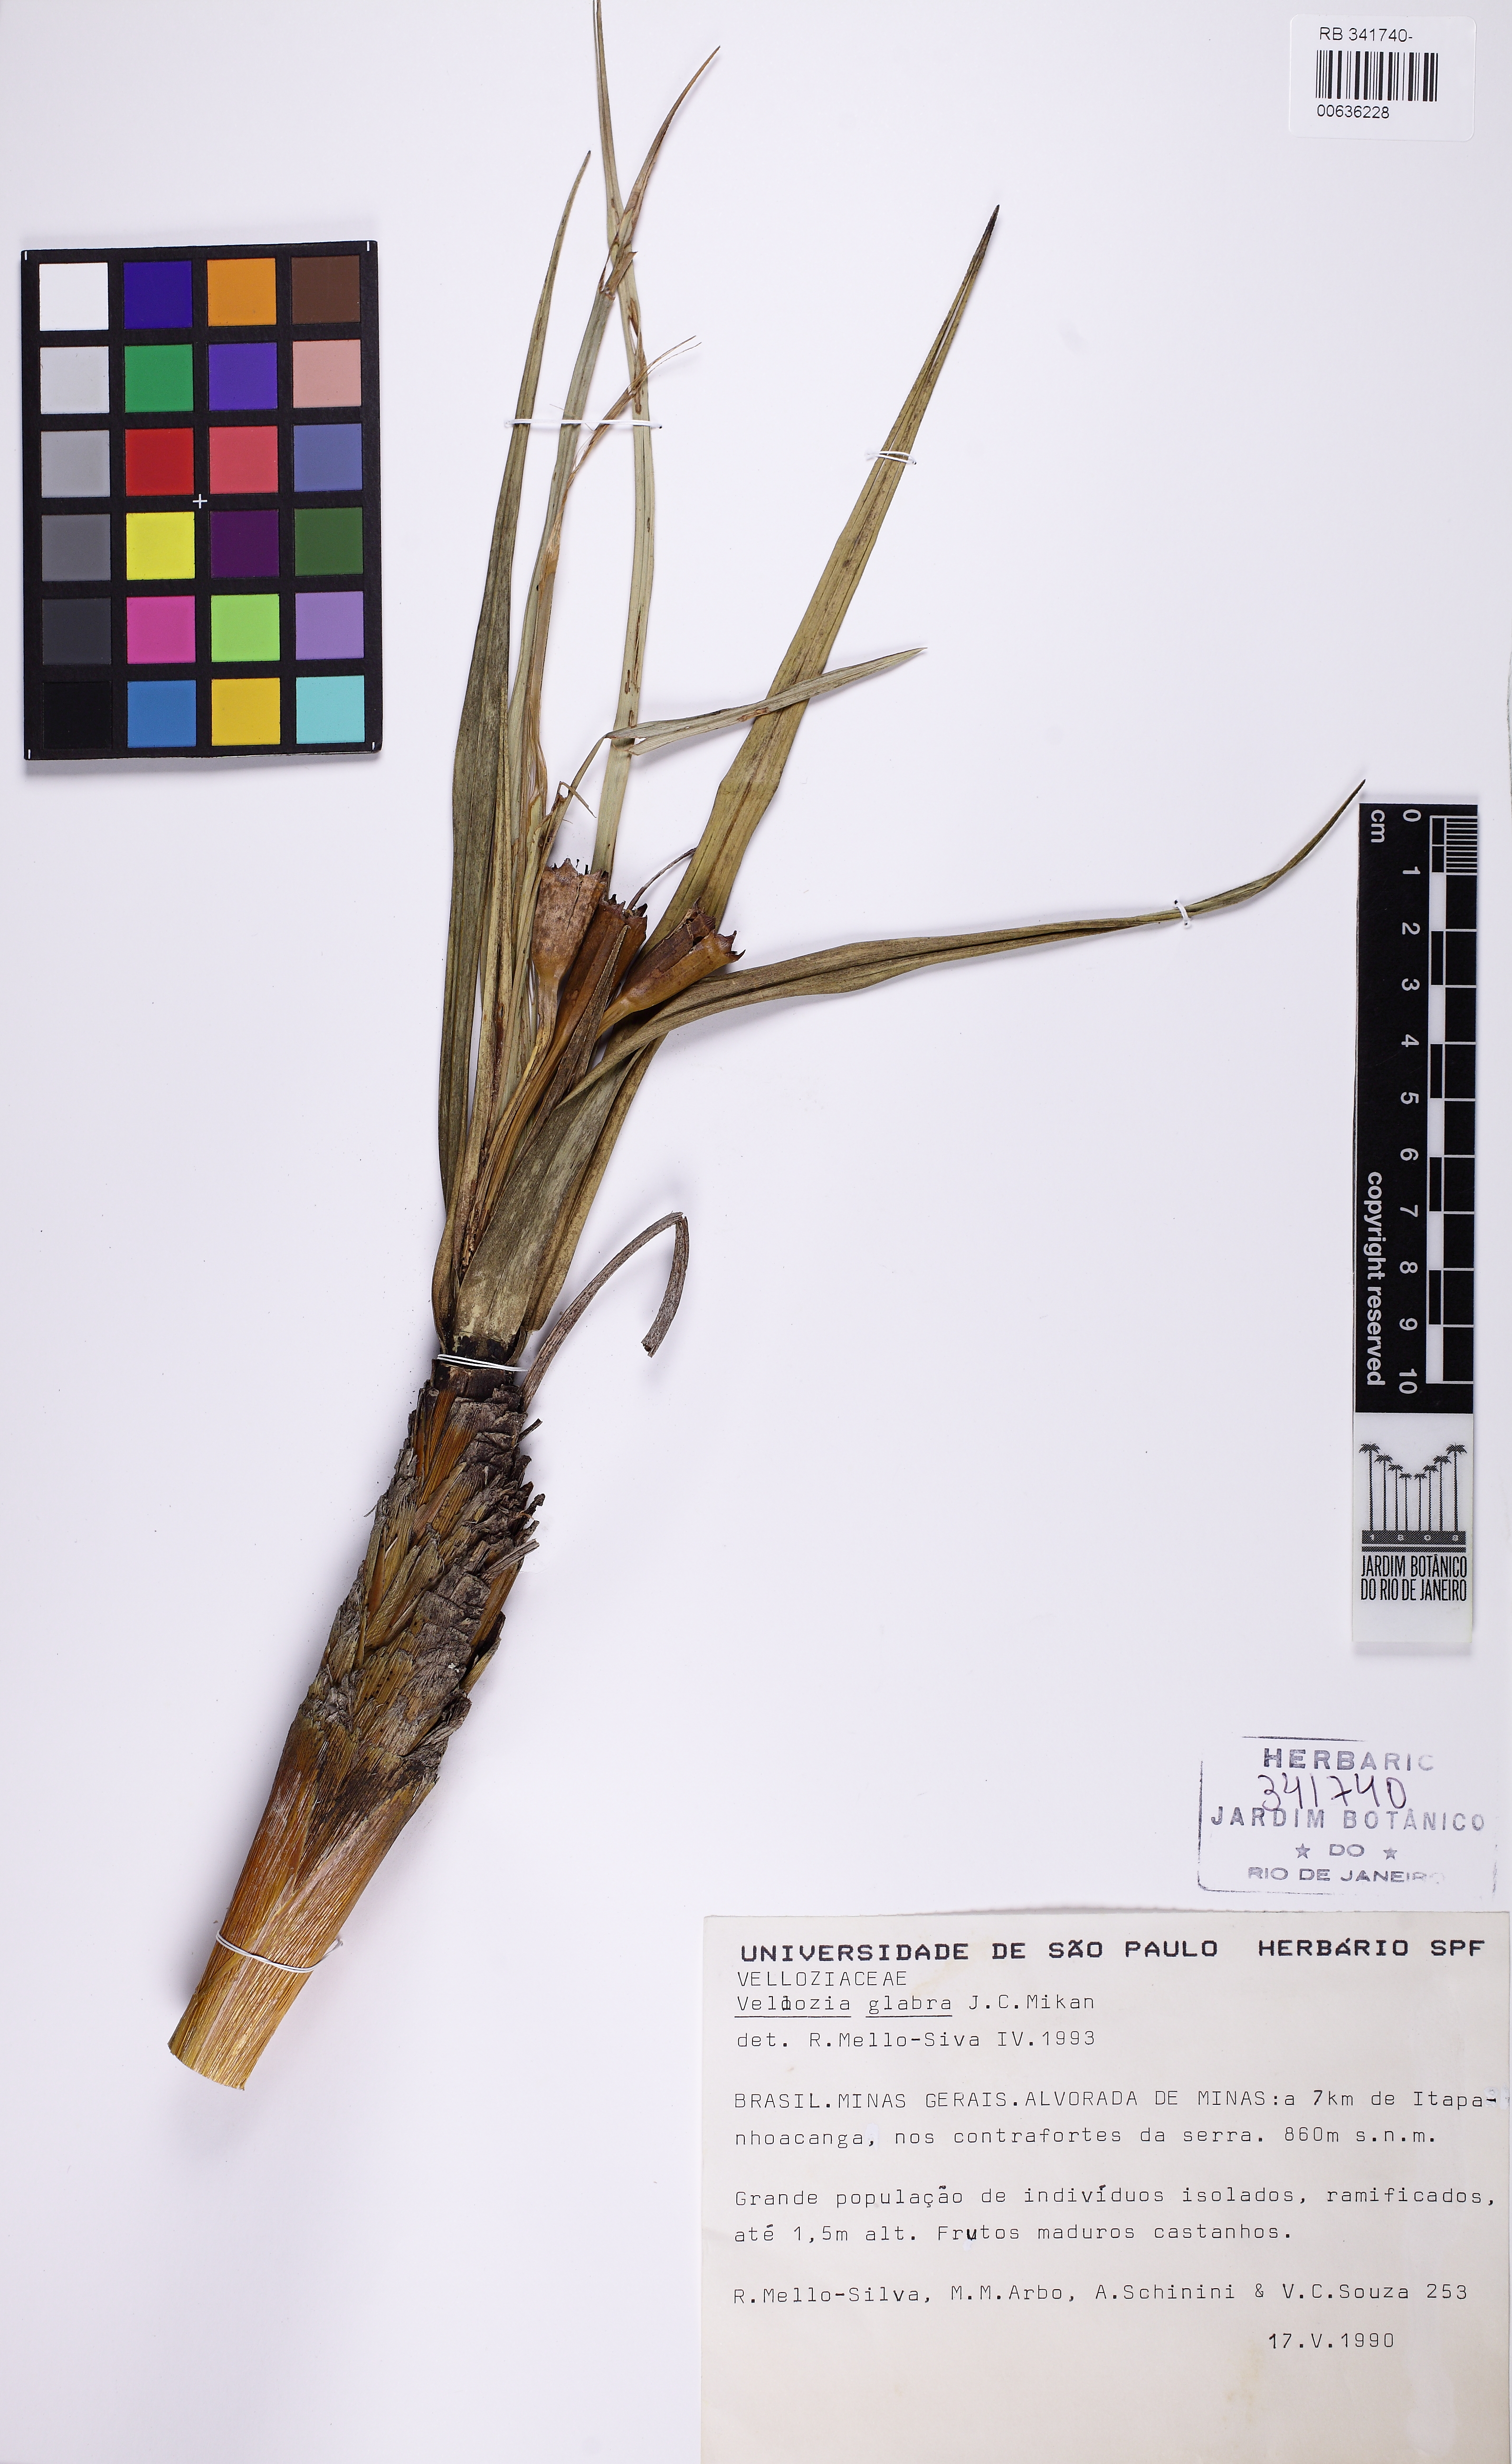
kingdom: Plantae
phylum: Tracheophyta
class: Liliopsida
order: Pandanales
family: Velloziaceae
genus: Vellozia
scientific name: Vellozia glabra
